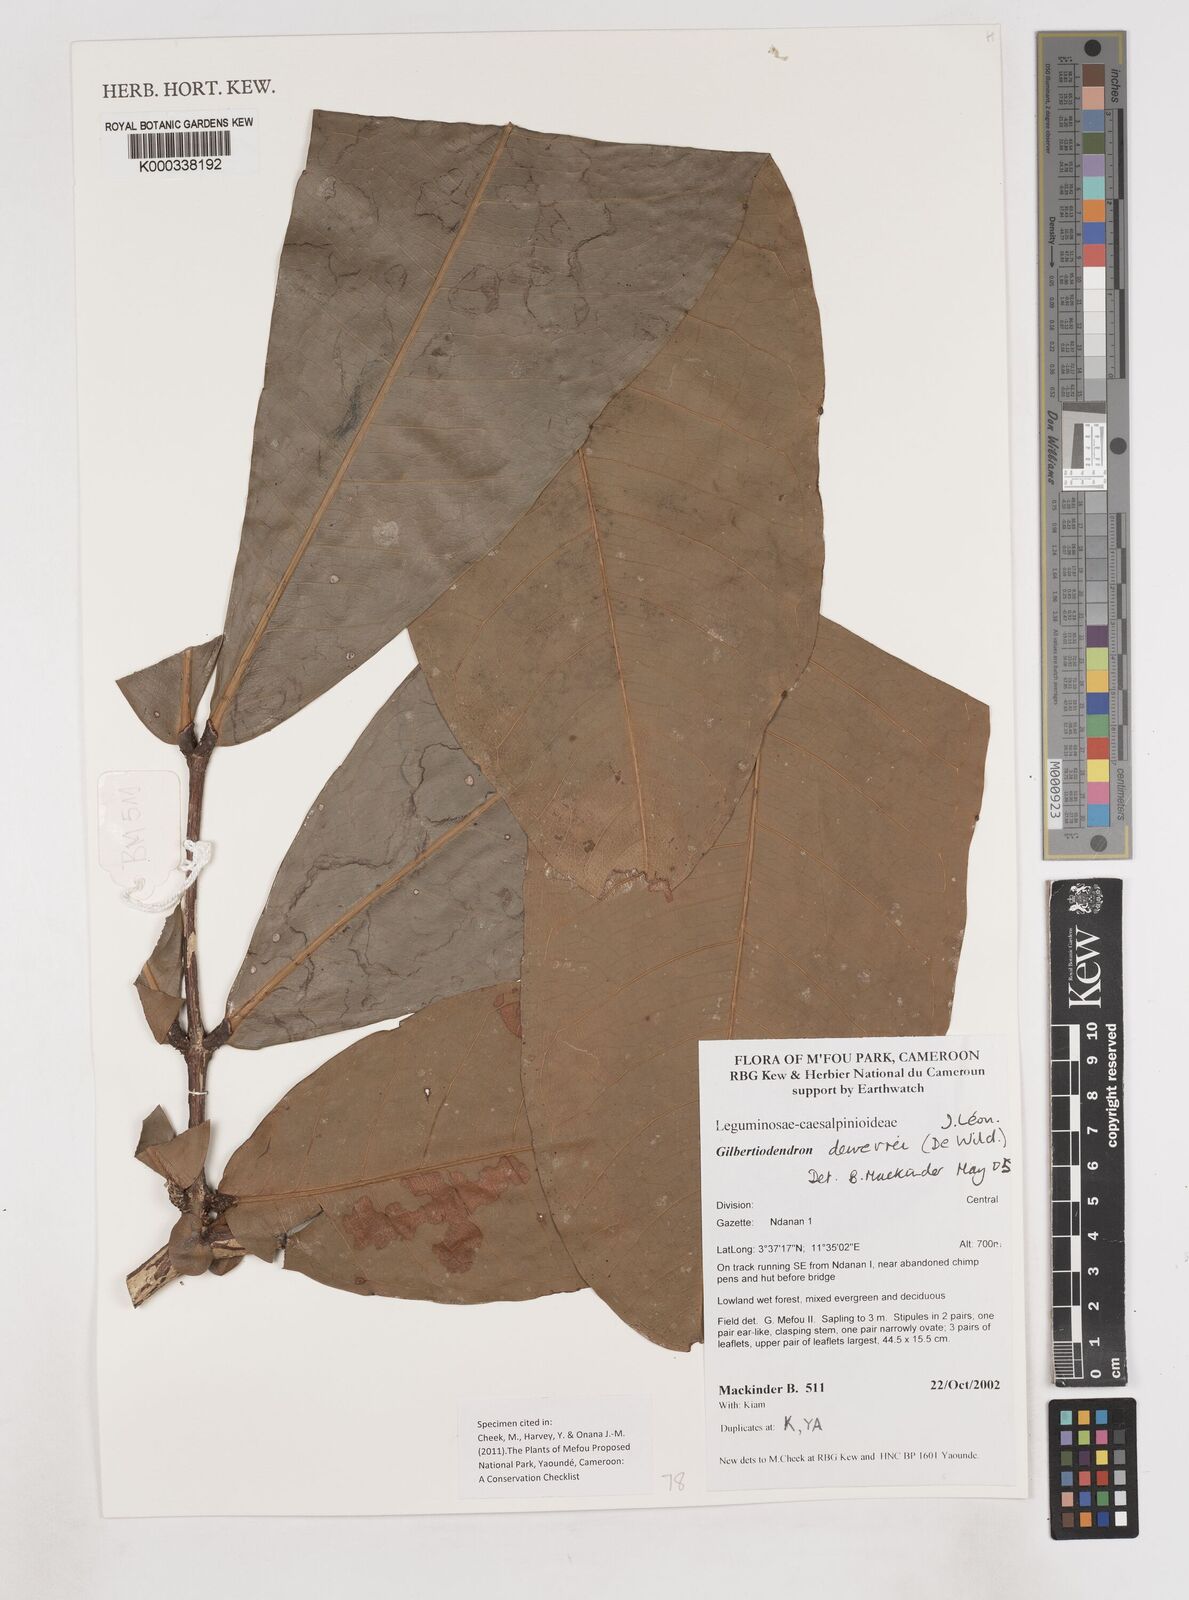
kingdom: Plantae
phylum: Tracheophyta
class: Magnoliopsida
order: Fabales
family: Fabaceae
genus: Gilbertiodendron
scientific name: Gilbertiodendron
